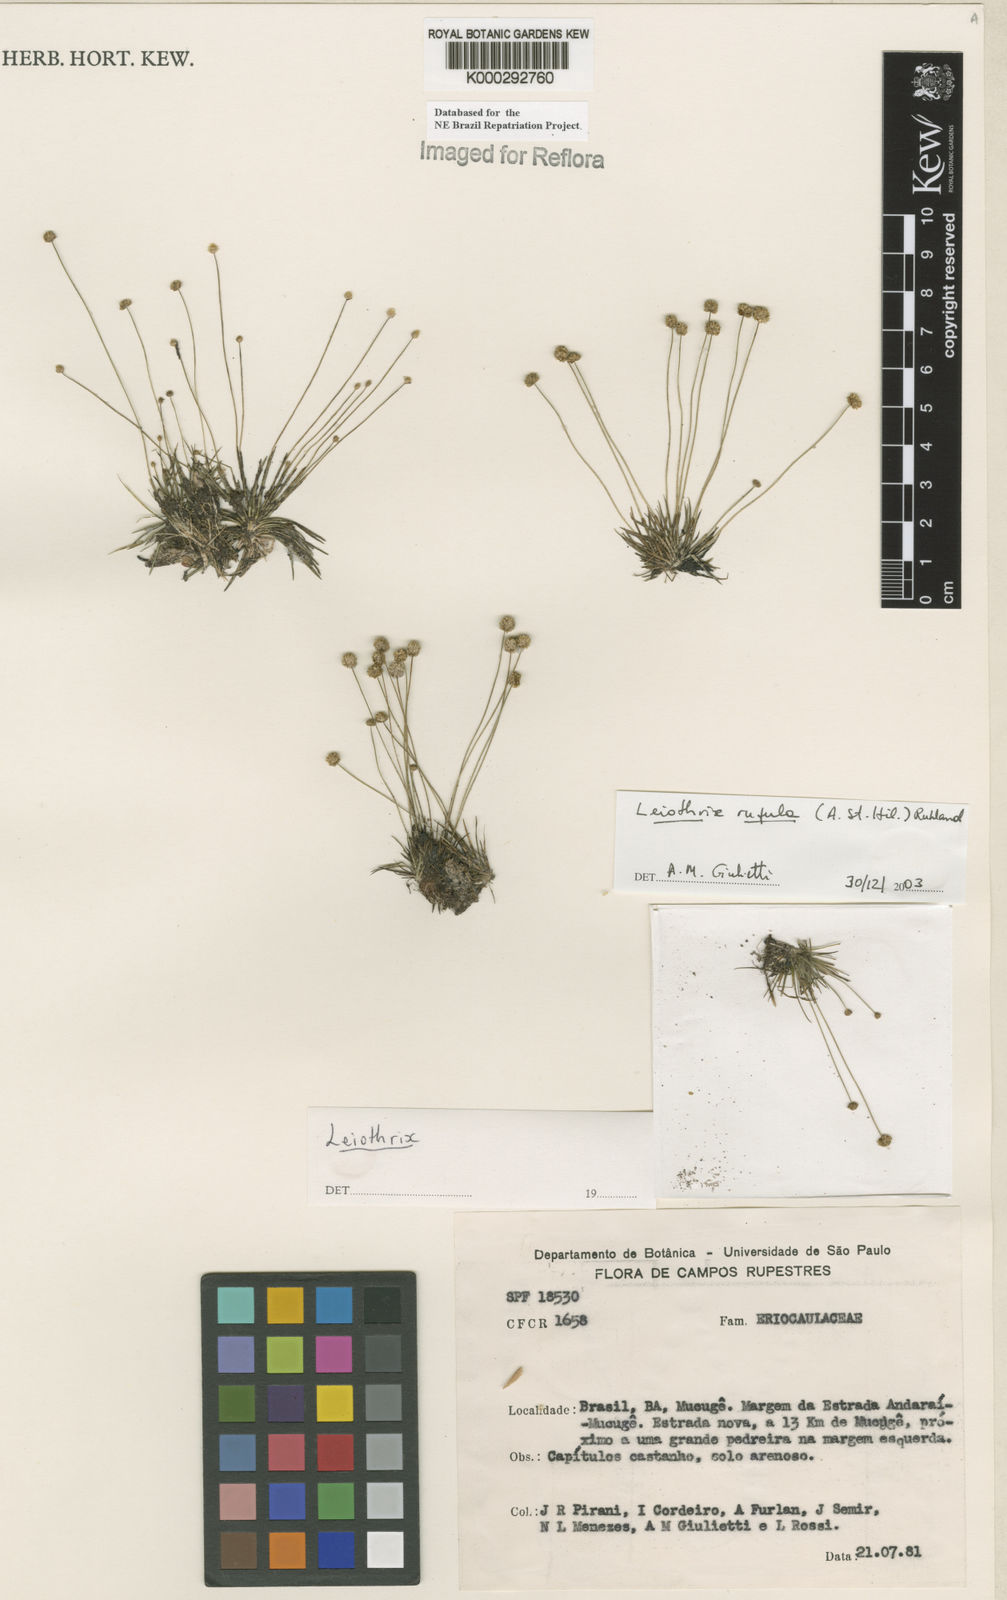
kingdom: Plantae
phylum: Tracheophyta
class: Liliopsida
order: Poales
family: Eriocaulaceae
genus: Leiothrix
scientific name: Leiothrix rufula
